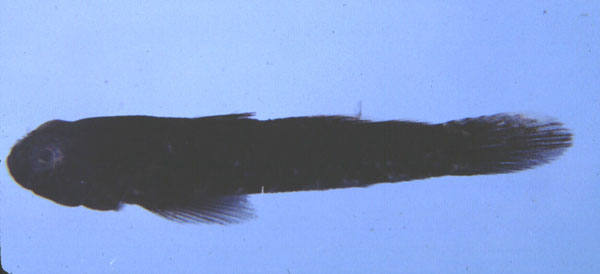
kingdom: Animalia
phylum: Chordata
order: Perciformes
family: Gobiidae
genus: Drombus
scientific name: Drombus key
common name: Key goby
